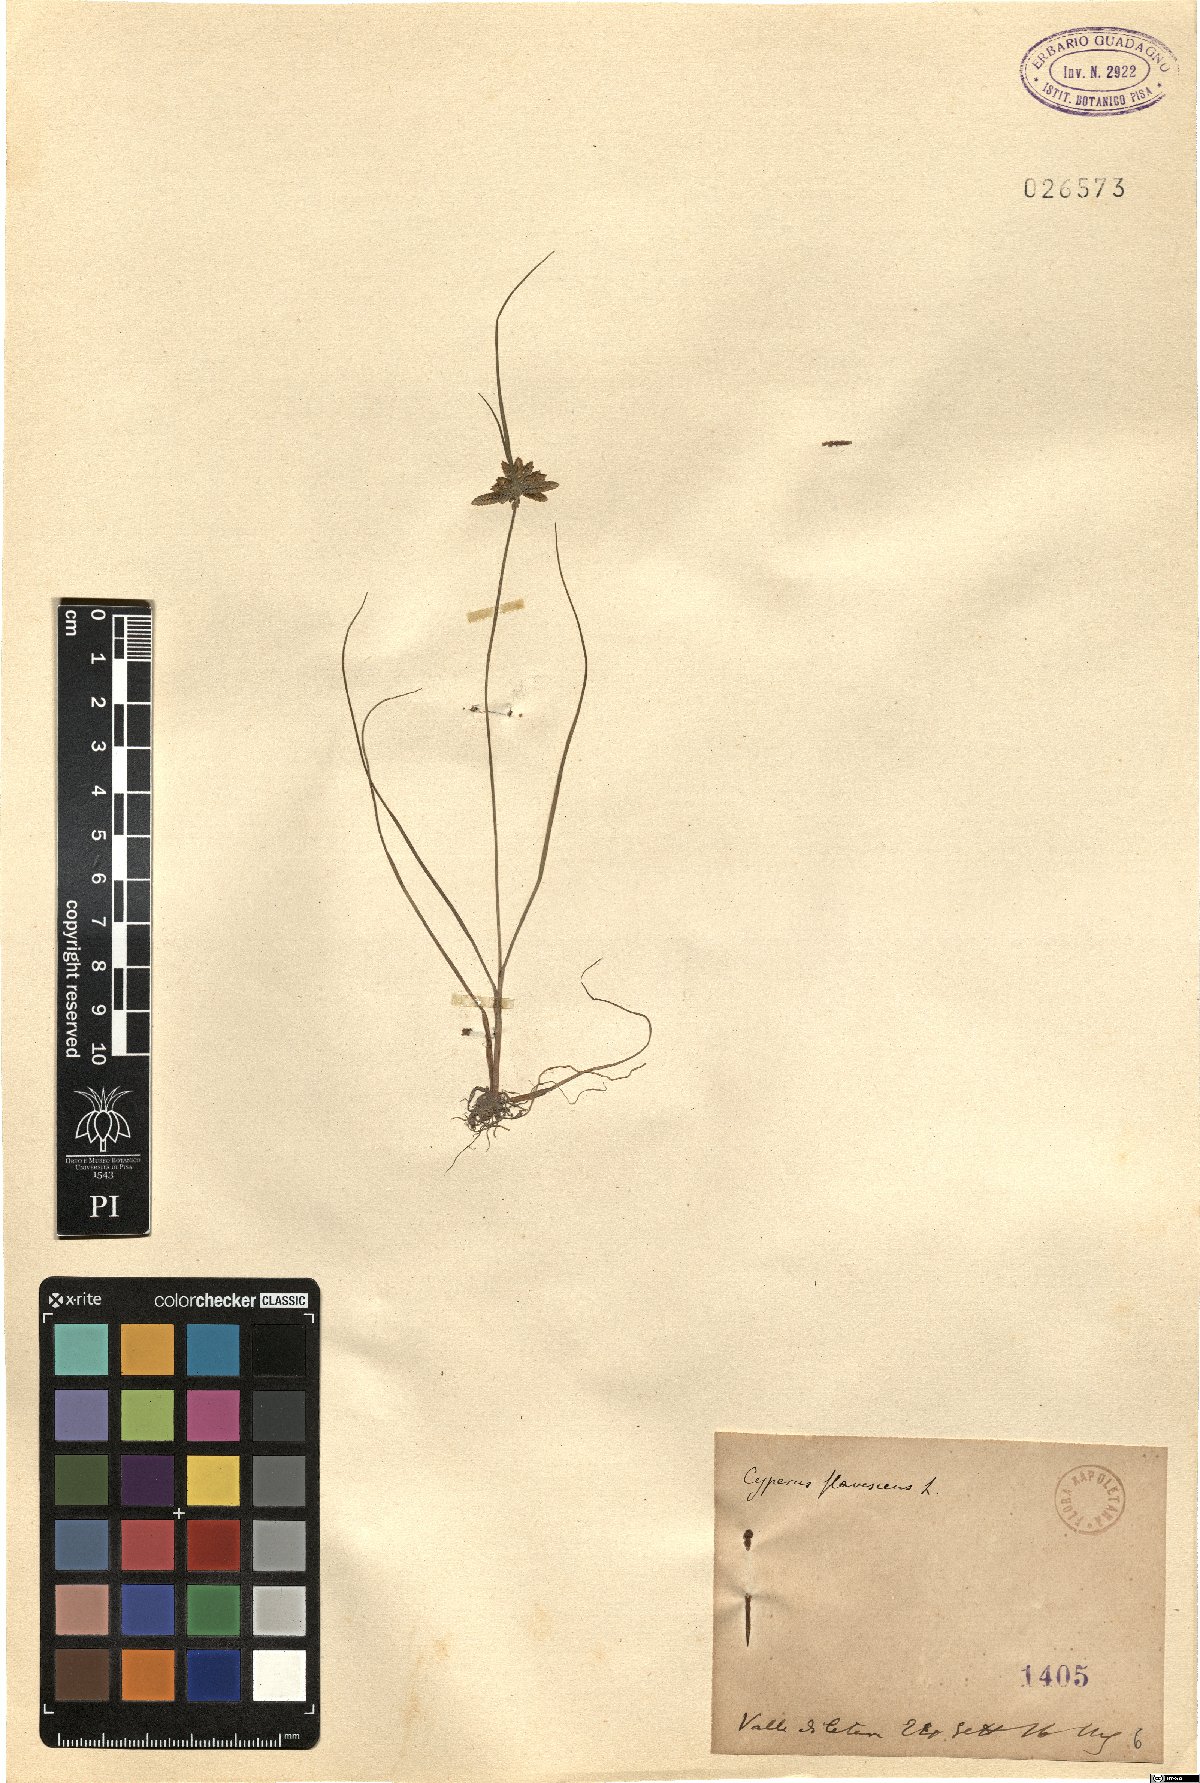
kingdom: Plantae
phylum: Tracheophyta
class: Liliopsida
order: Poales
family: Cyperaceae
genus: Cyperus
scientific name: Cyperus flavescens
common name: Yellow galingale
